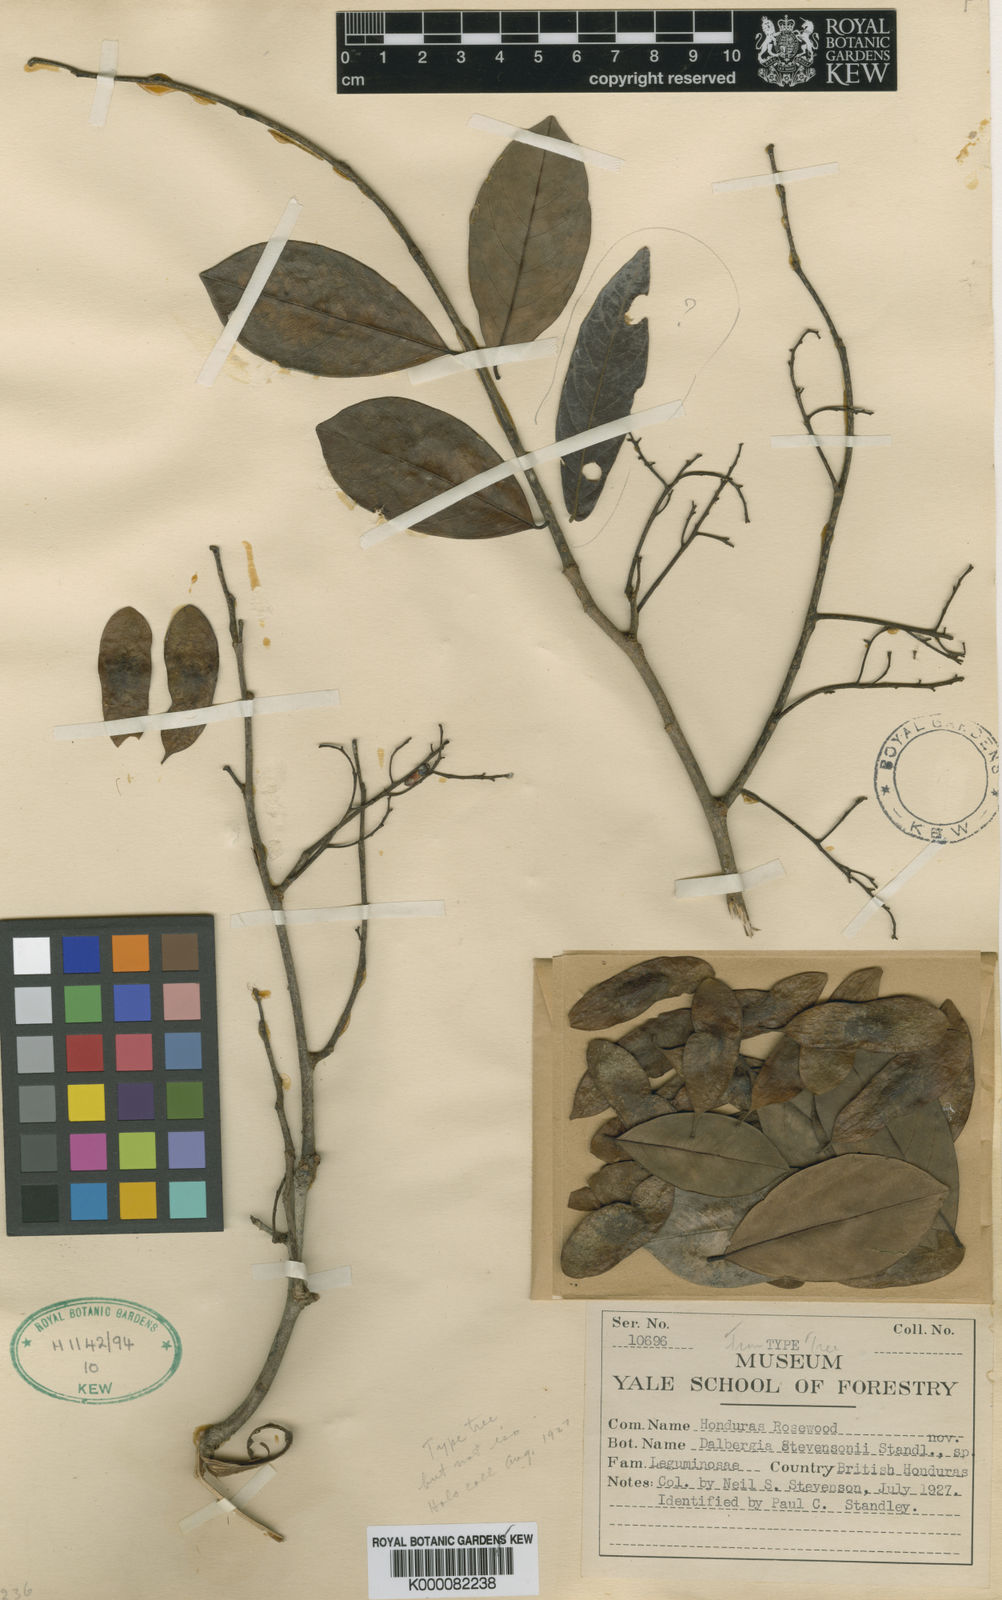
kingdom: Plantae
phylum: Tracheophyta
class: Magnoliopsida
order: Fabales
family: Fabaceae
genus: Dalbergia
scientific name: Dalbergia stevensonii
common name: Honduras rosewood
